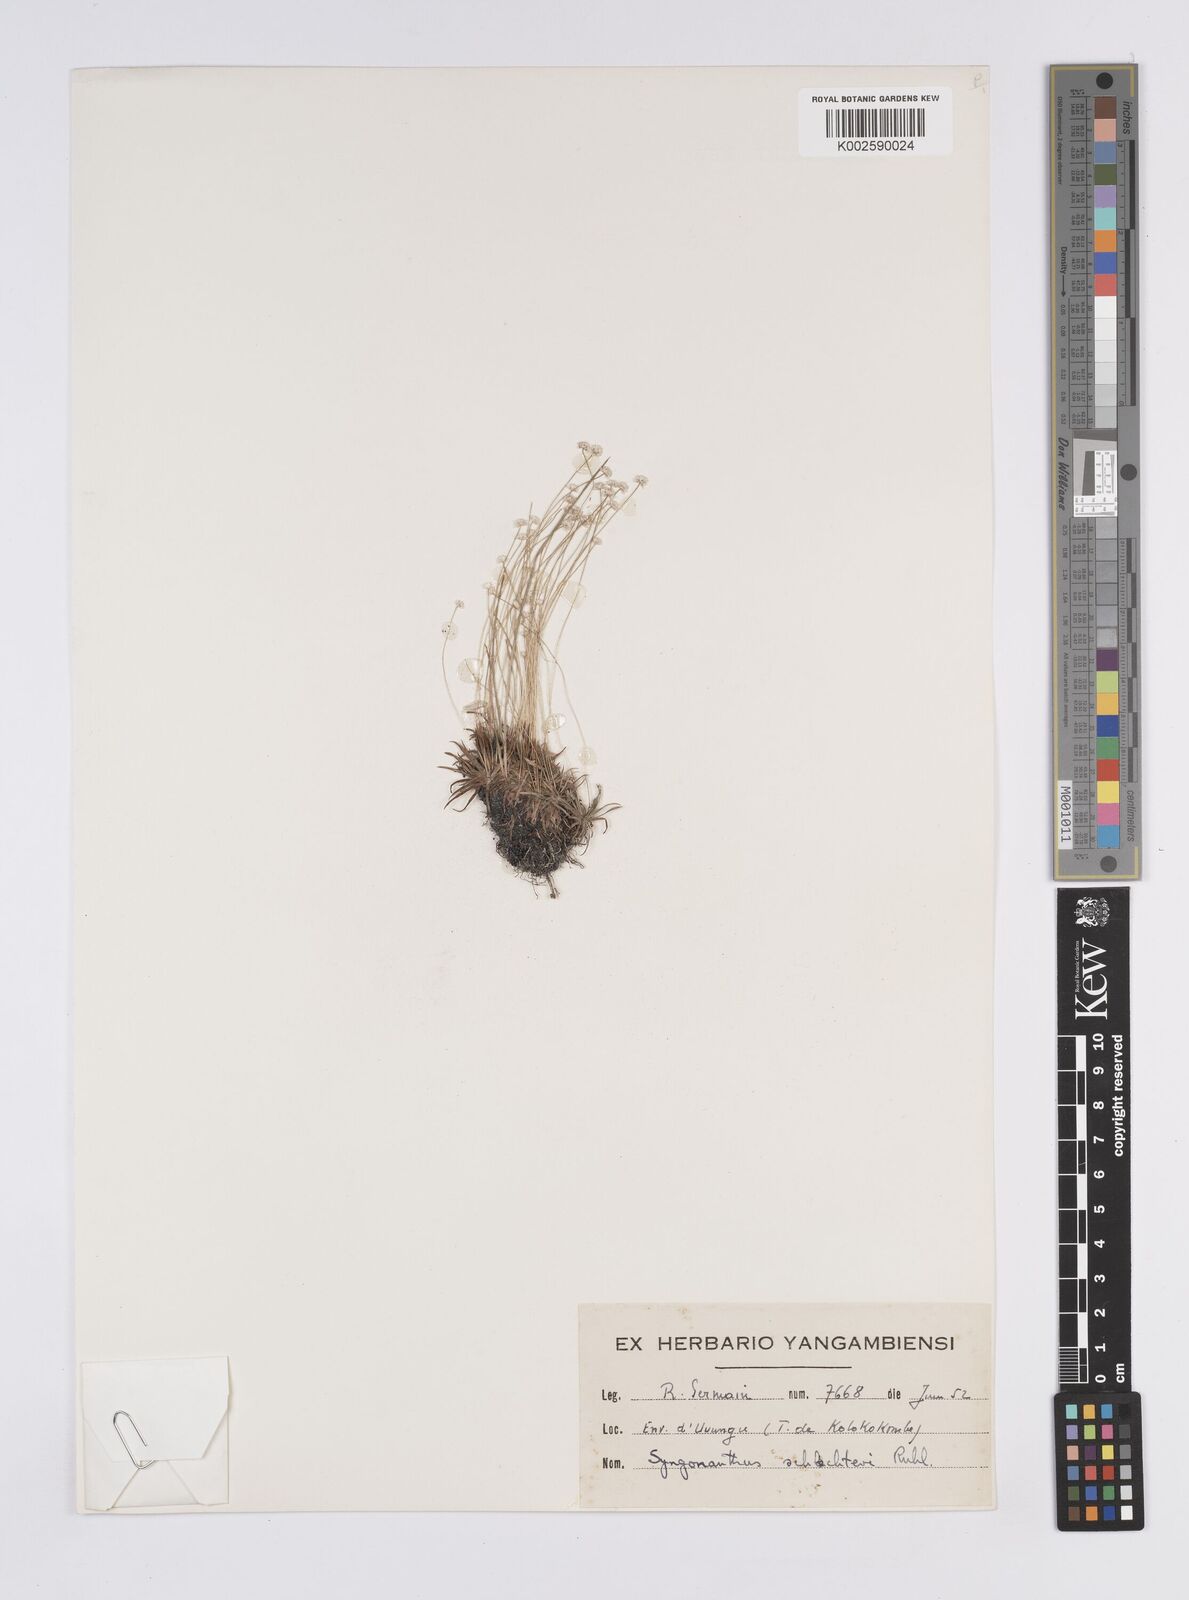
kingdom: Plantae
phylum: Tracheophyta
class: Liliopsida
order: Poales
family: Eriocaulaceae
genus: Syngonanthus
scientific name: Syngonanthus schlechteri
